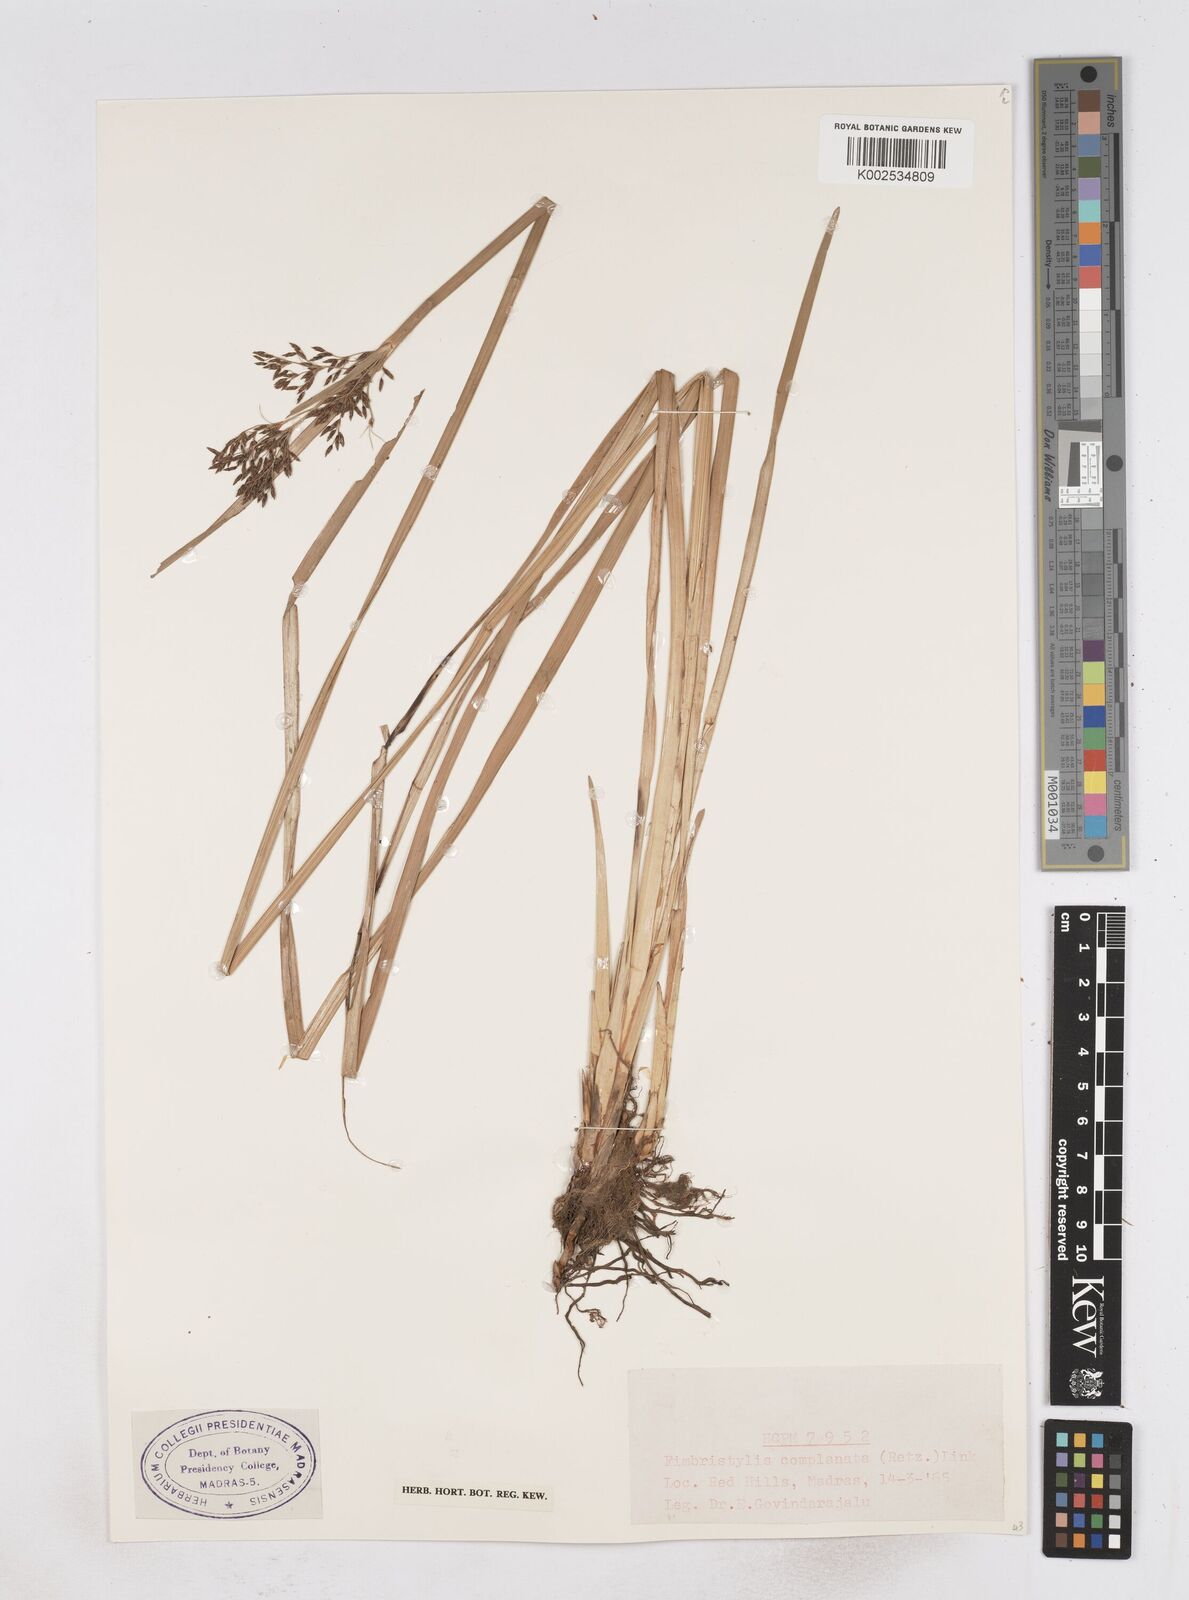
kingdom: Plantae
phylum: Tracheophyta
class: Liliopsida
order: Poales
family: Cyperaceae
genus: Fimbristylis
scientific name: Fimbristylis complanata
